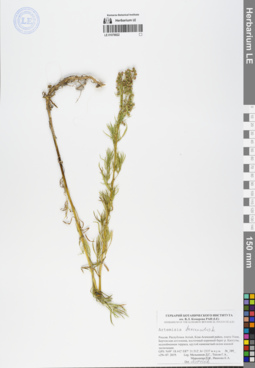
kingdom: Plantae
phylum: Tracheophyta
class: Magnoliopsida
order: Asterales
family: Asteraceae
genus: Artemisia
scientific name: Artemisia dracunculus
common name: Tarragon
